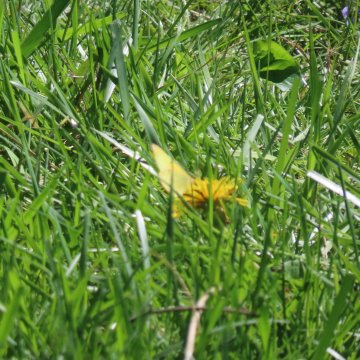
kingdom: Animalia
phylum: Arthropoda
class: Insecta
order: Lepidoptera
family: Pieridae
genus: Colias
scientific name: Colias eurytheme
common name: Orange Sulphur
